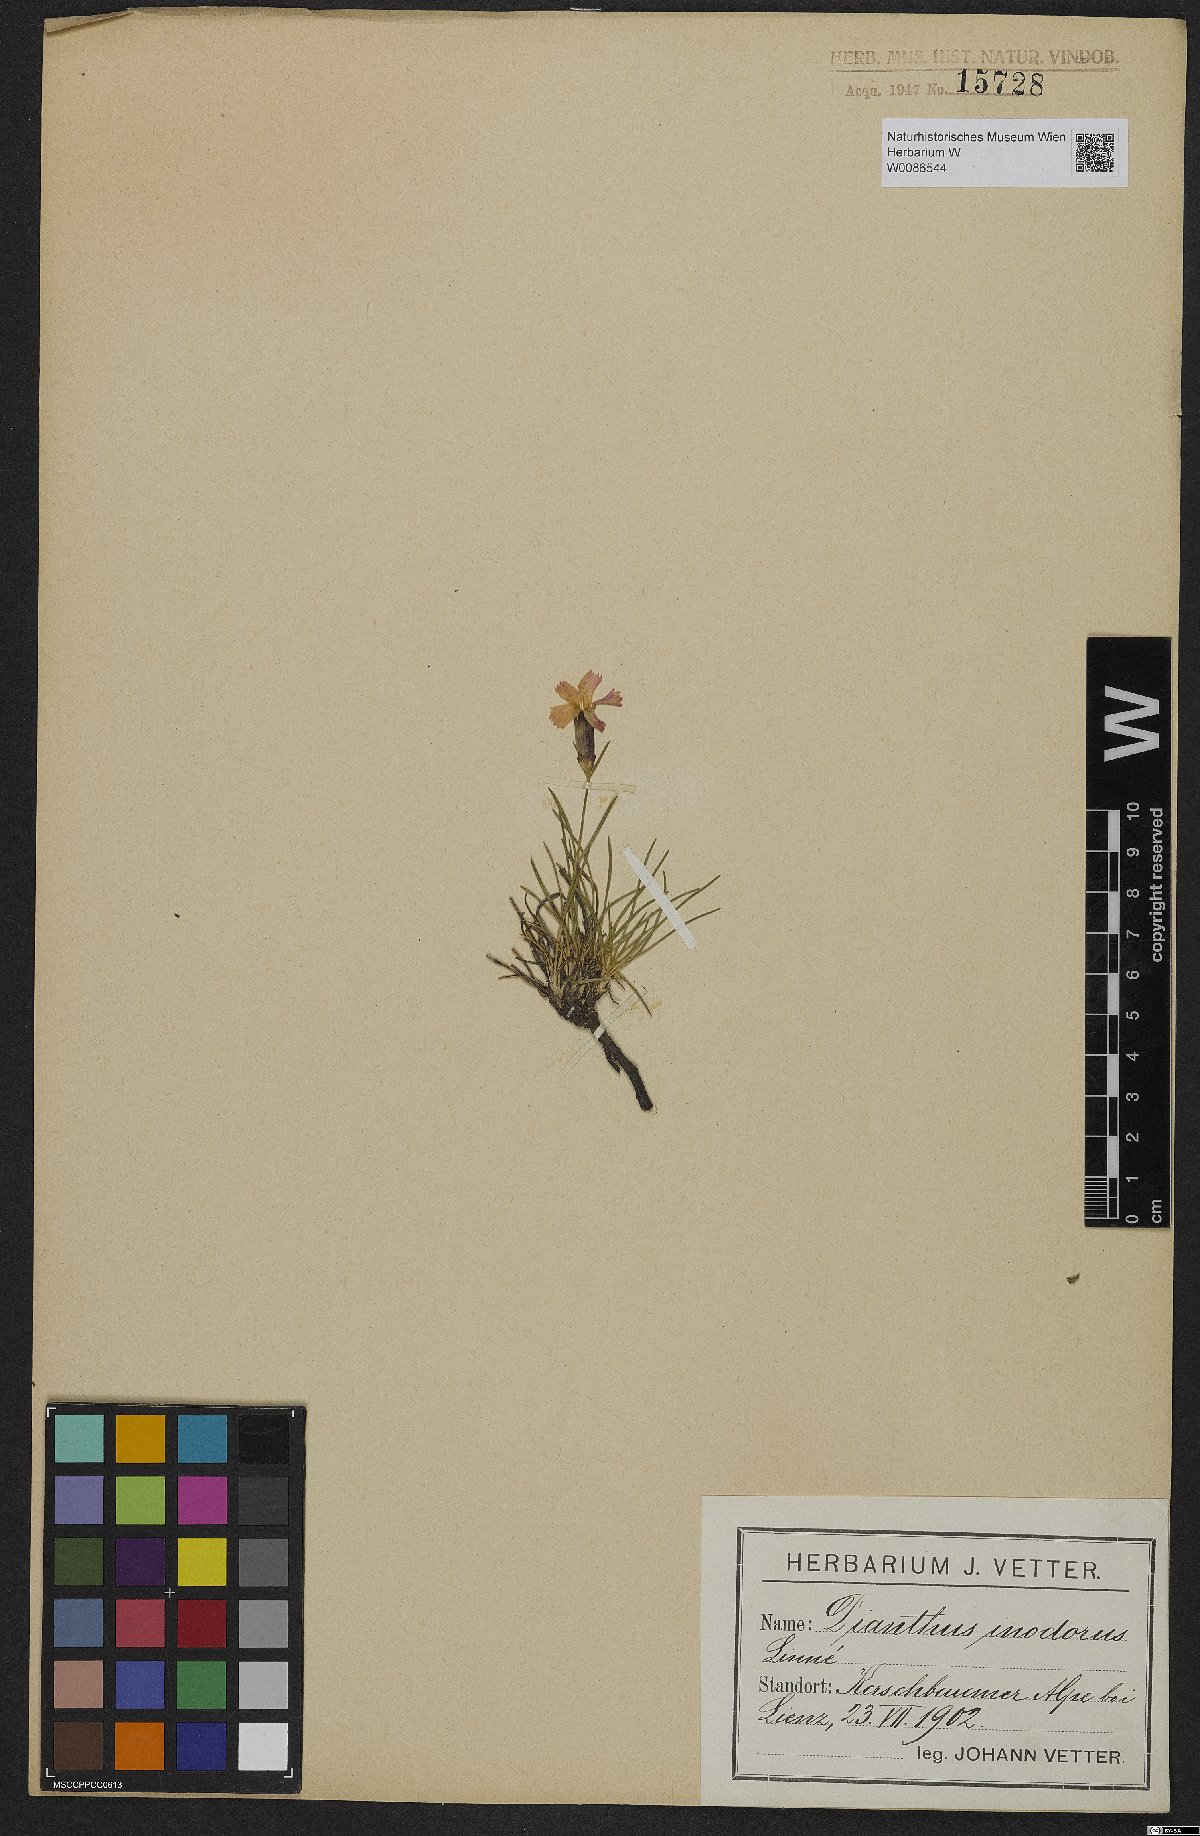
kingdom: Plantae
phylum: Tracheophyta
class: Magnoliopsida
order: Caryophyllales
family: Caryophyllaceae
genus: Dianthus
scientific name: Dianthus sylvestris
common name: Wood pink
